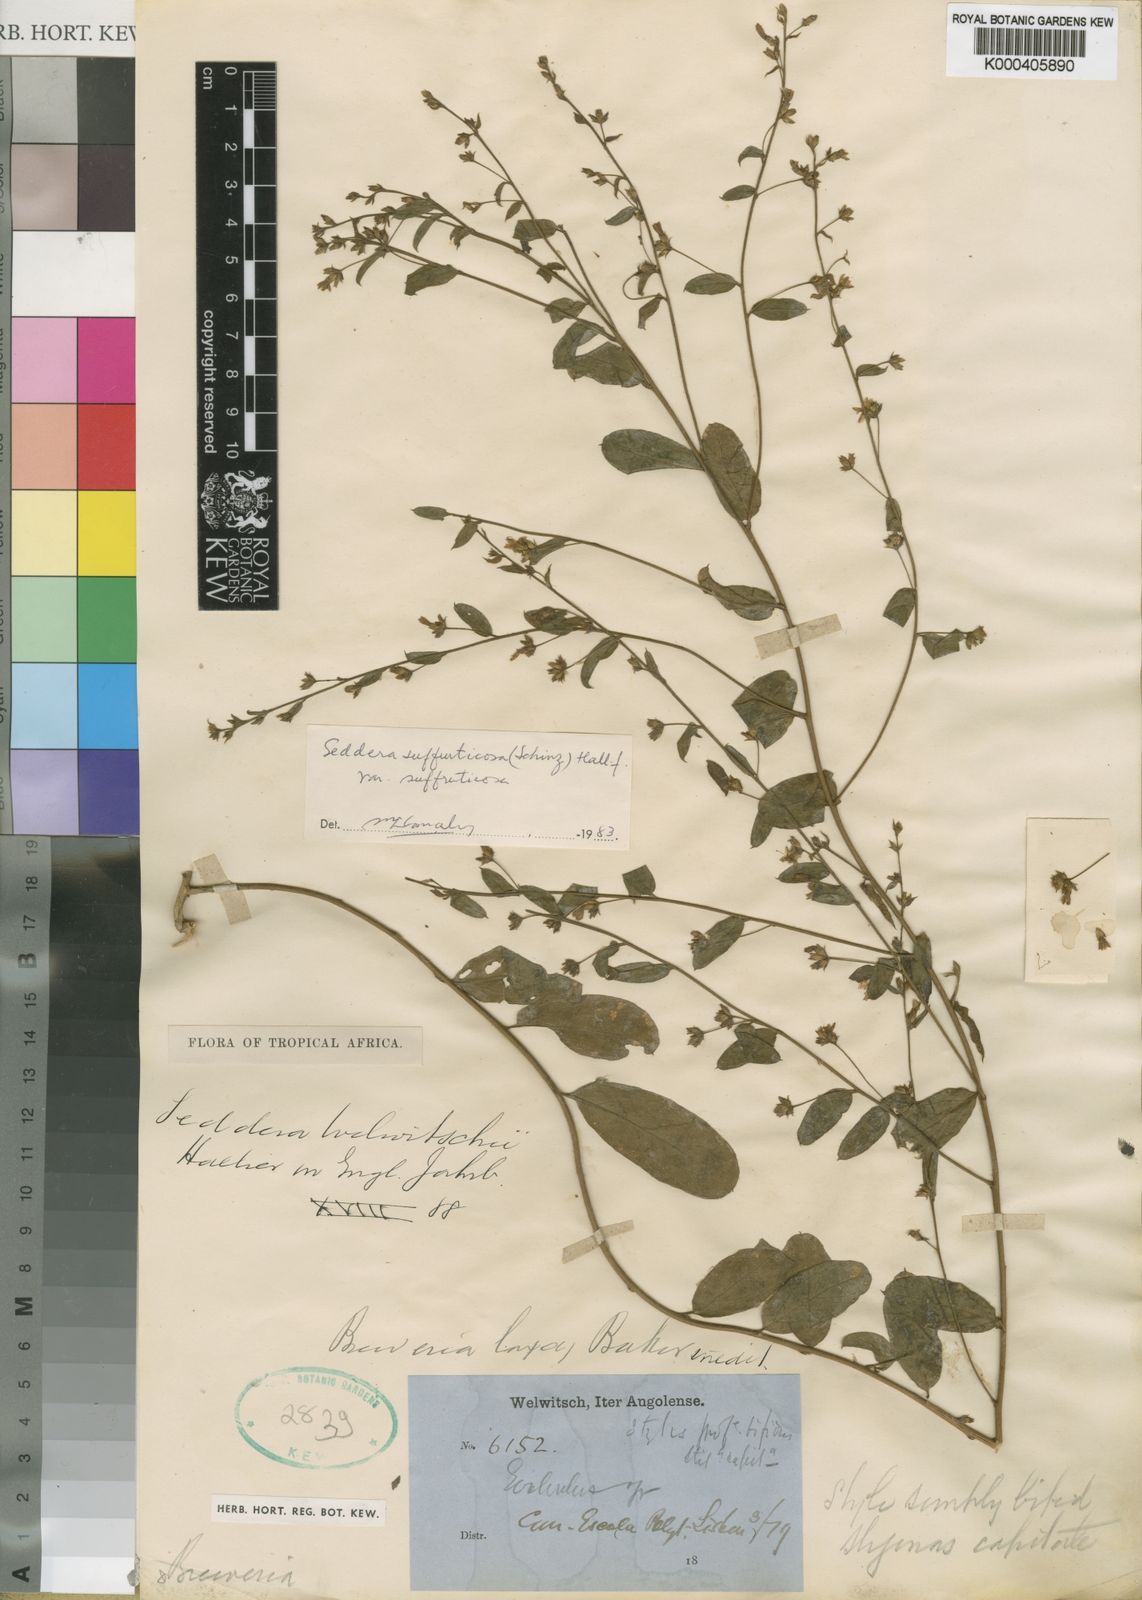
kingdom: Plantae
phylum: Tracheophyta
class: Magnoliopsida
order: Solanales
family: Convolvulaceae
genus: Seddera
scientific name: Seddera suffruticosa
